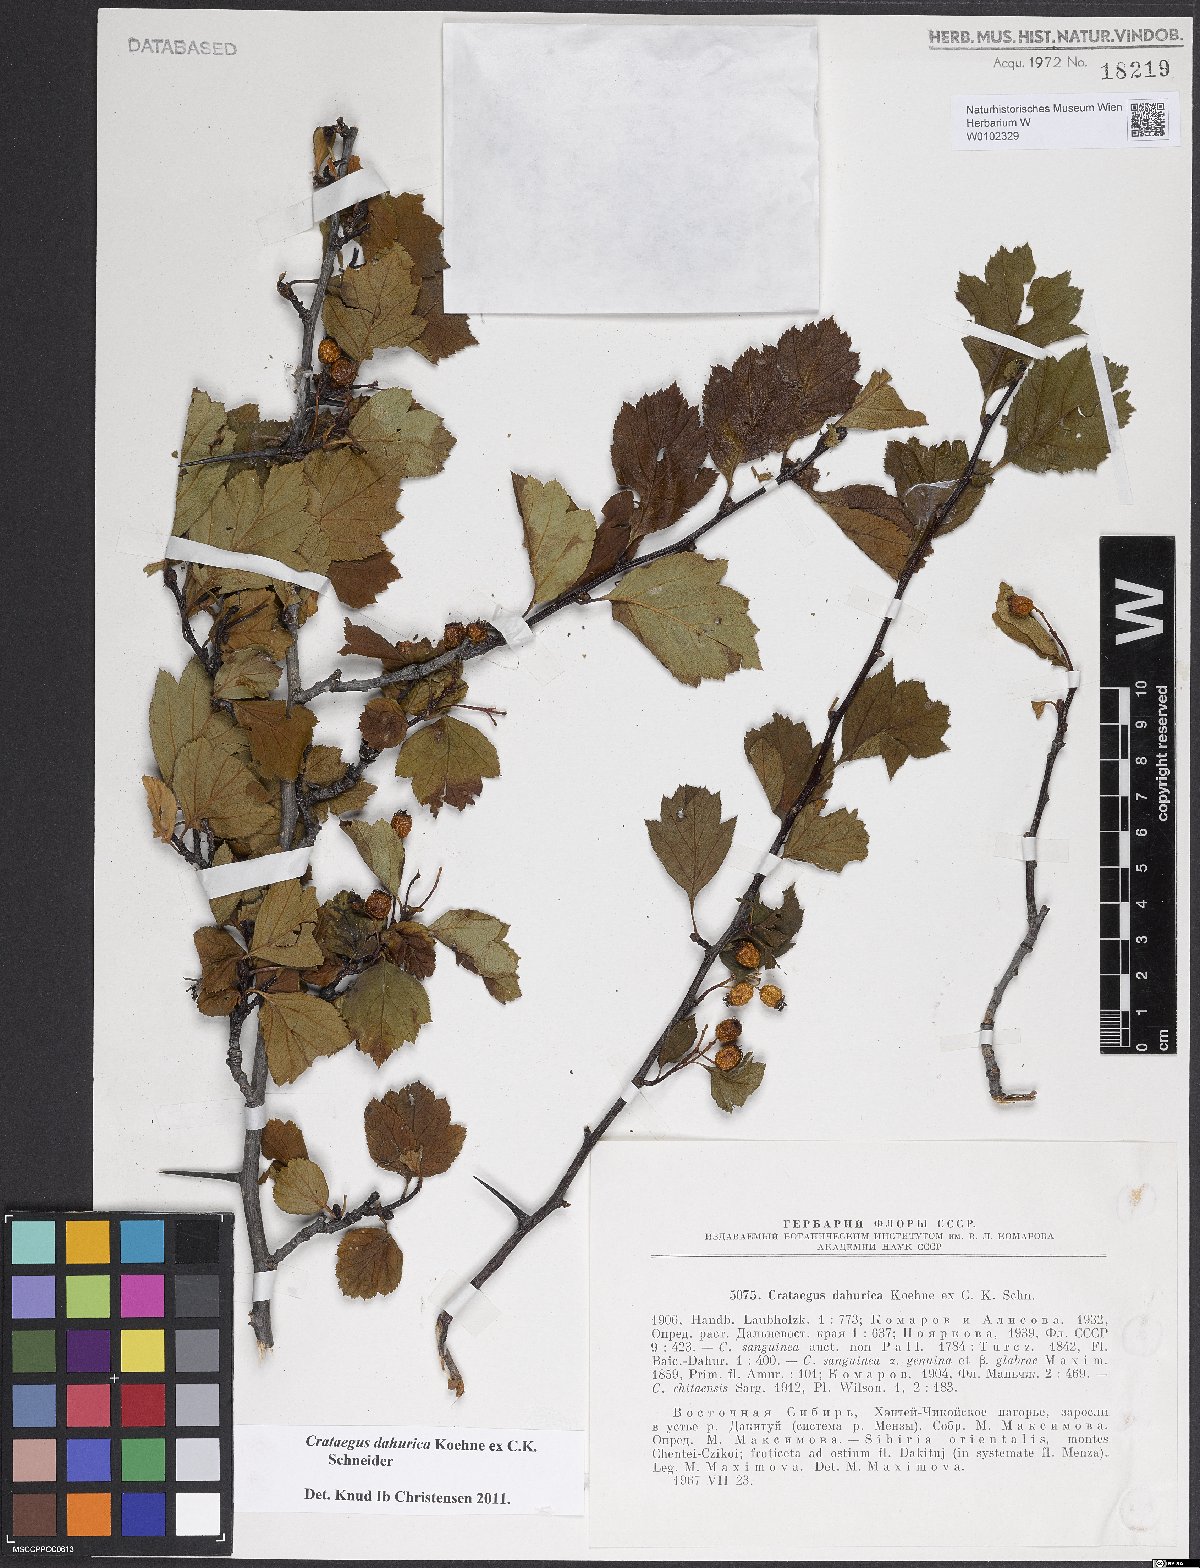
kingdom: Plantae
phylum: Tracheophyta
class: Magnoliopsida
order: Rosales
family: Rosaceae
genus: Crataegus
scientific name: Crataegus dahurica
